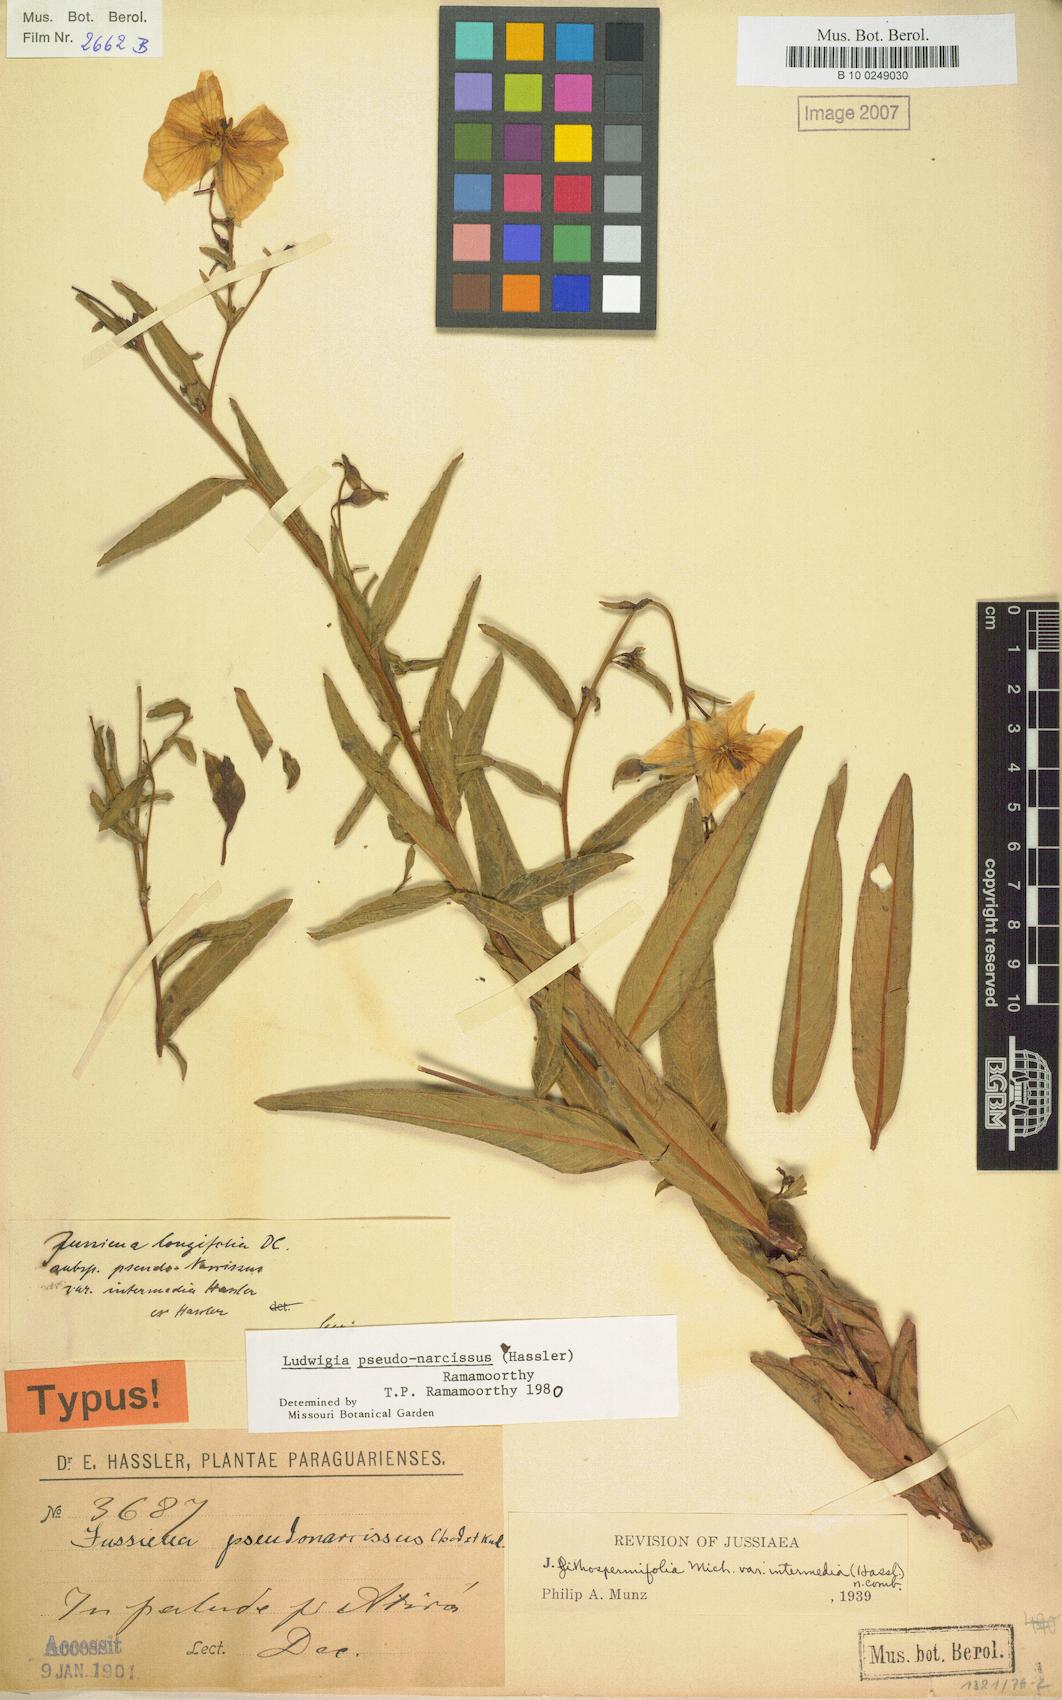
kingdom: Plantae
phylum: Tracheophyta
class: Magnoliopsida
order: Myrtales
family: Onagraceae
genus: Ludwigia
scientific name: Ludwigia pseudonarcissus
